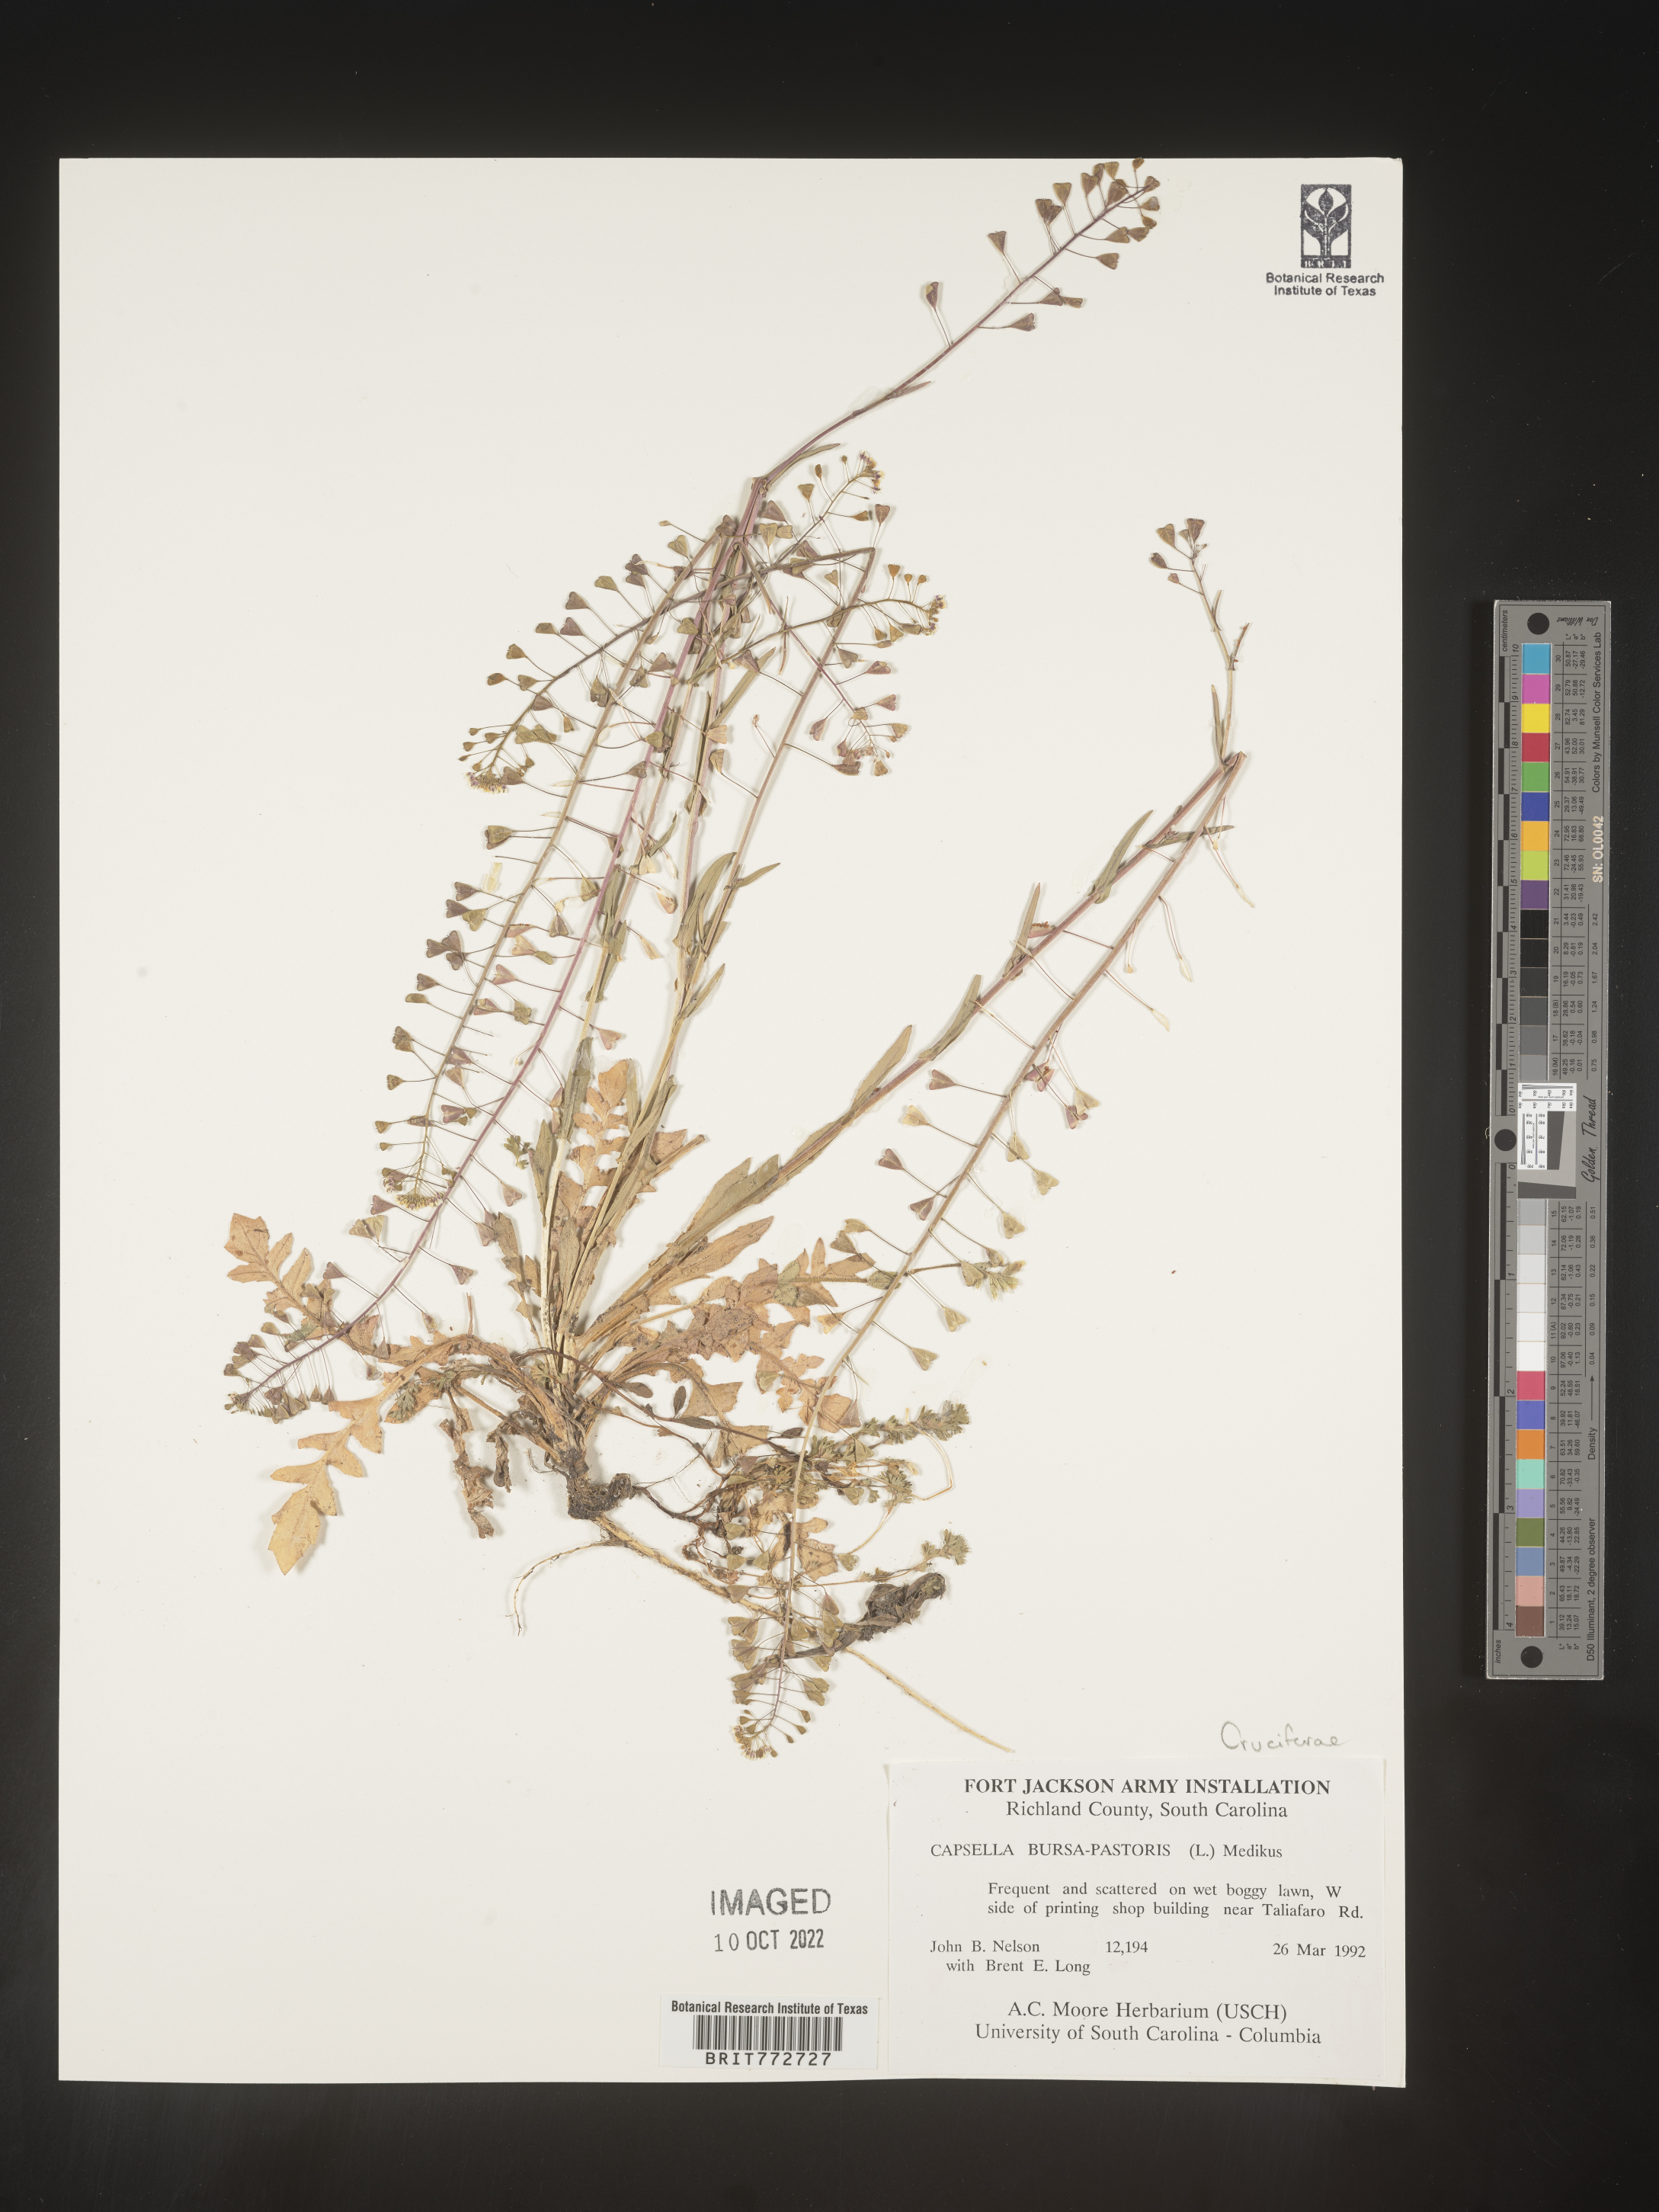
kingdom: Plantae
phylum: Tracheophyta
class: Magnoliopsida
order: Brassicales
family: Brassicaceae
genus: Capsella
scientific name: Capsella bursa-pastoris
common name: Shepherd's purse
